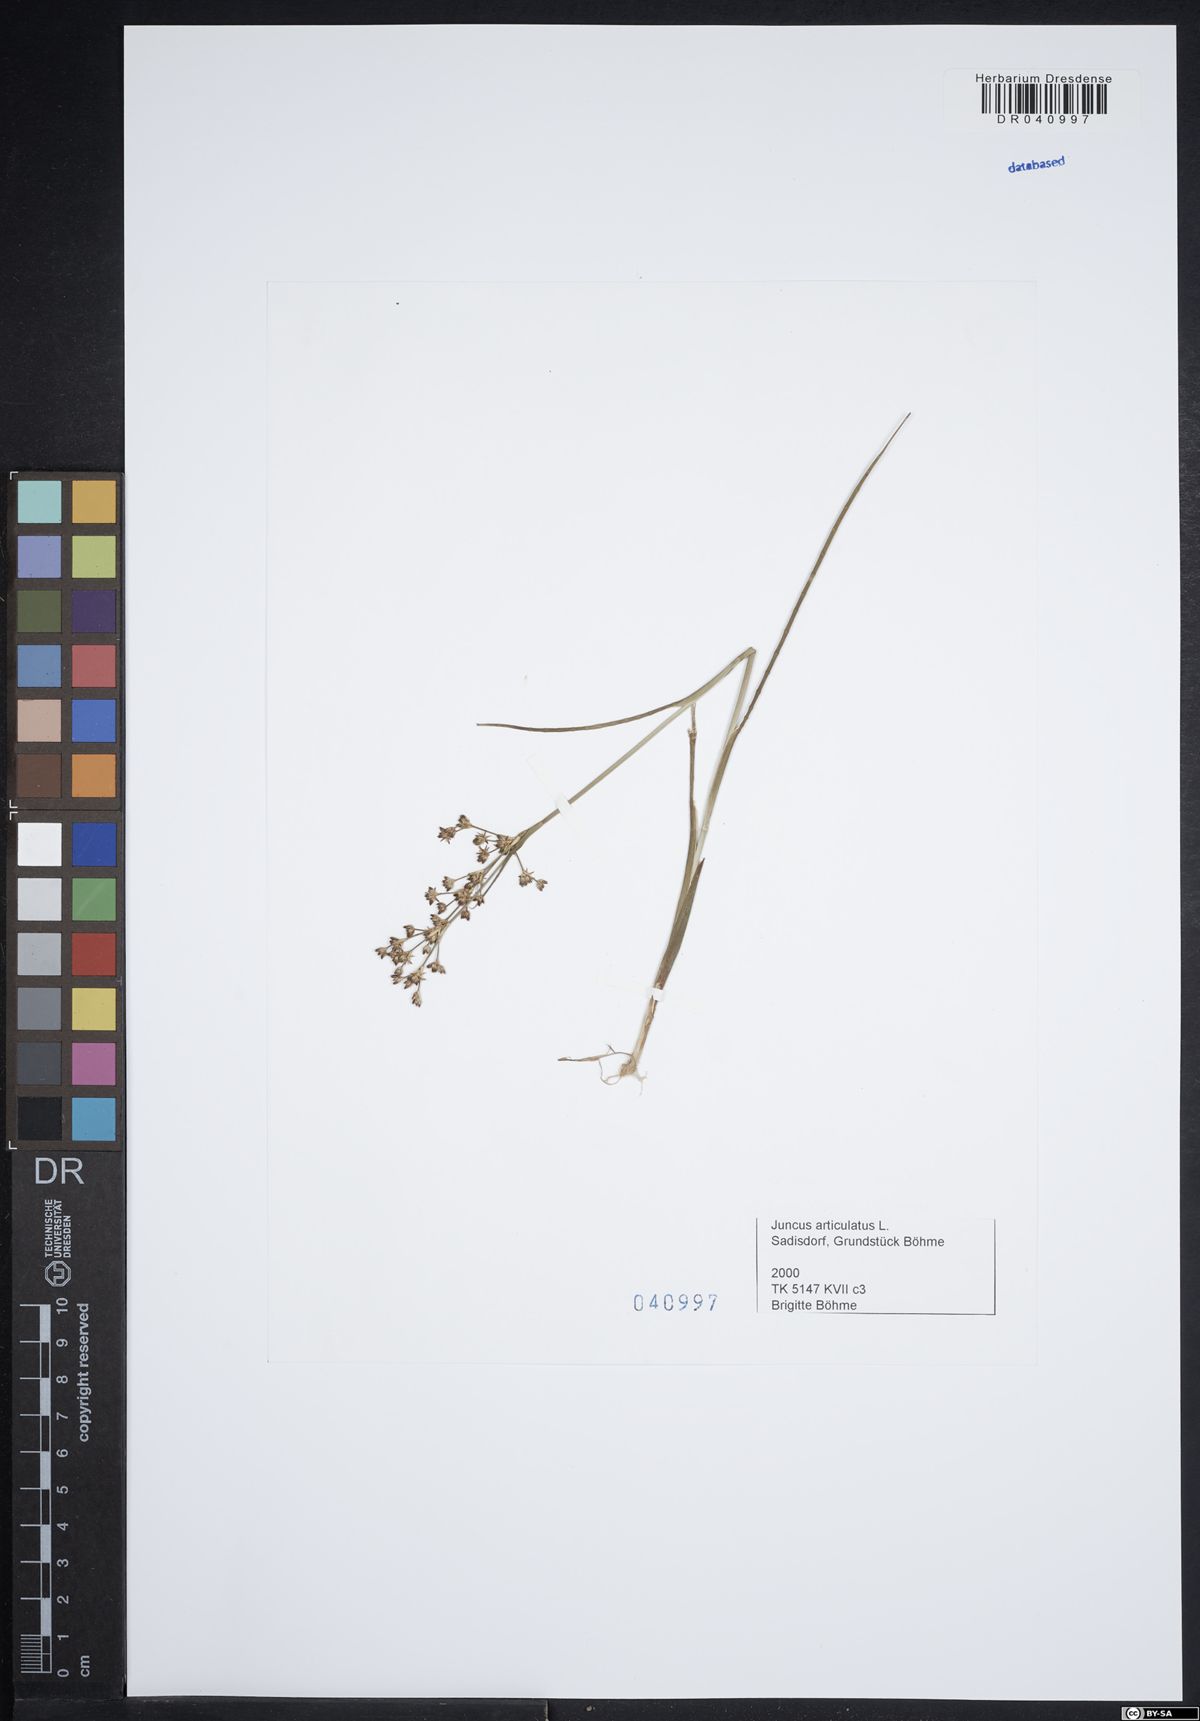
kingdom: Plantae
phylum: Tracheophyta
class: Liliopsida
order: Poales
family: Juncaceae
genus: Juncus
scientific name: Juncus articulatus
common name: Jointed rush
